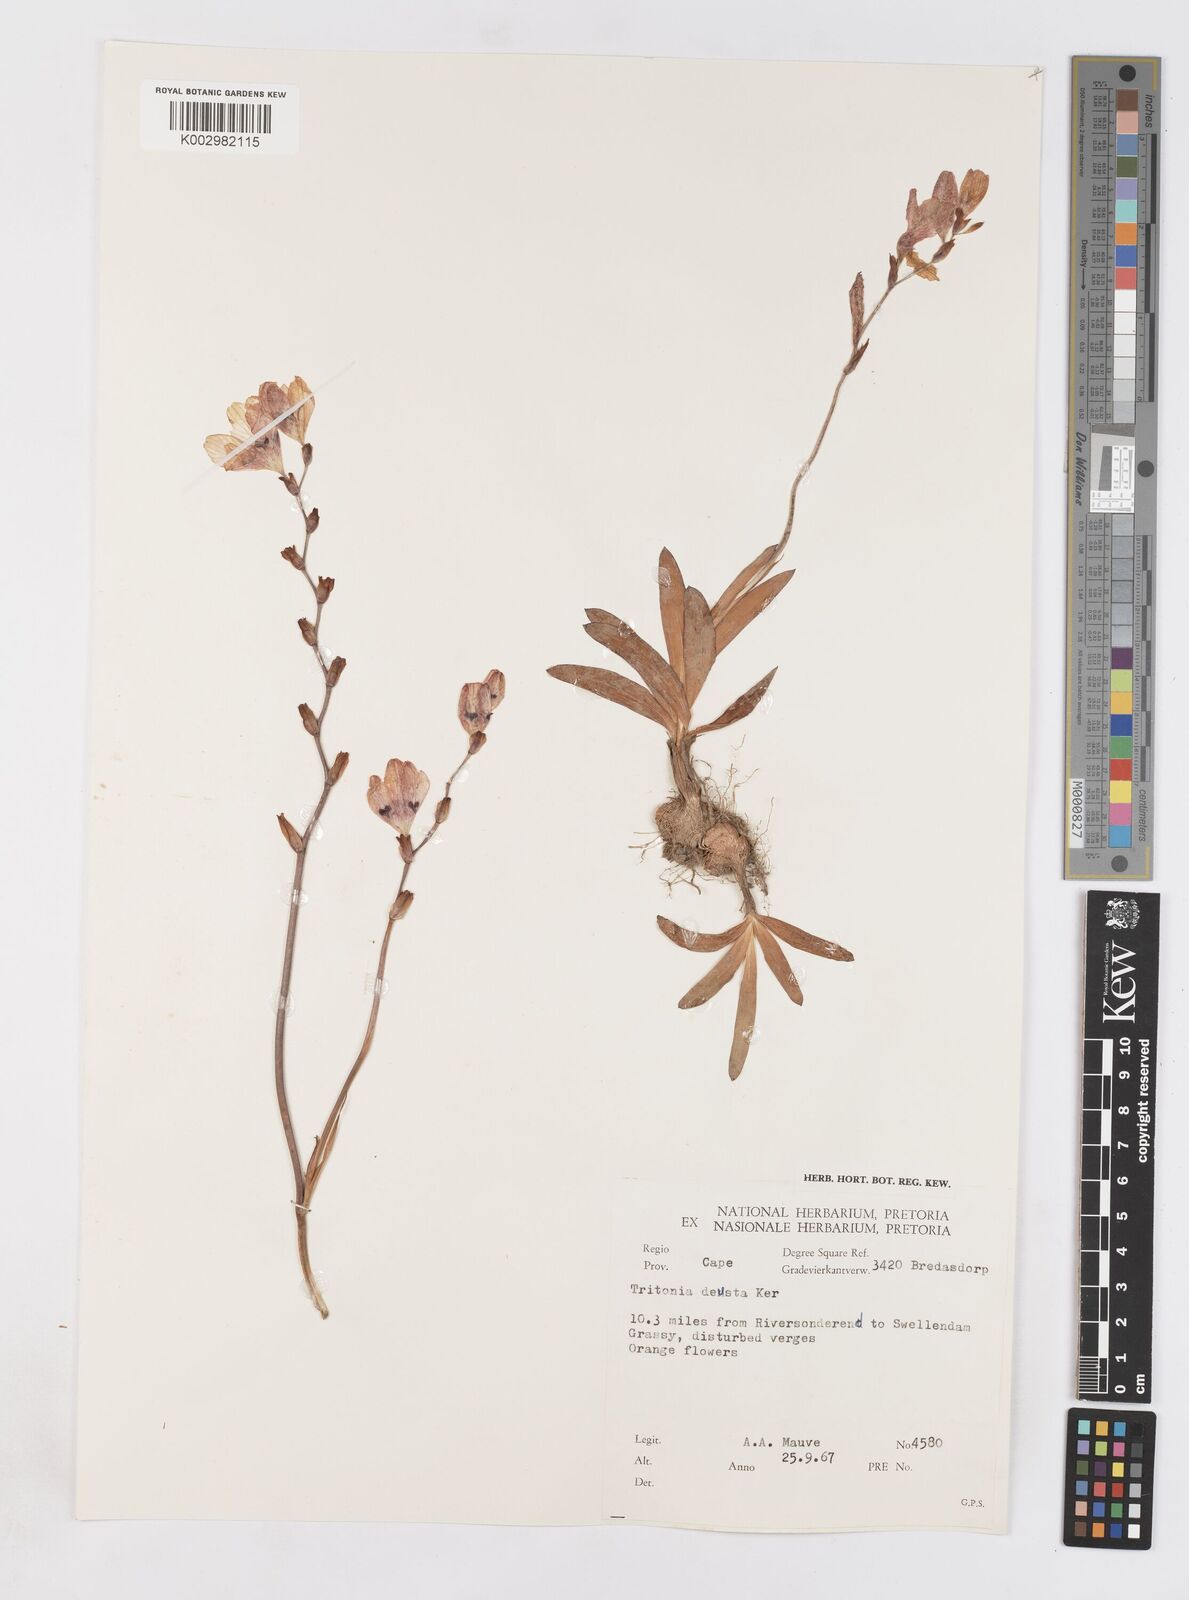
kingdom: Plantae
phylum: Tracheophyta
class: Liliopsida
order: Asparagales
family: Iridaceae
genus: Tritonia
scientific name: Tritonia deusta
